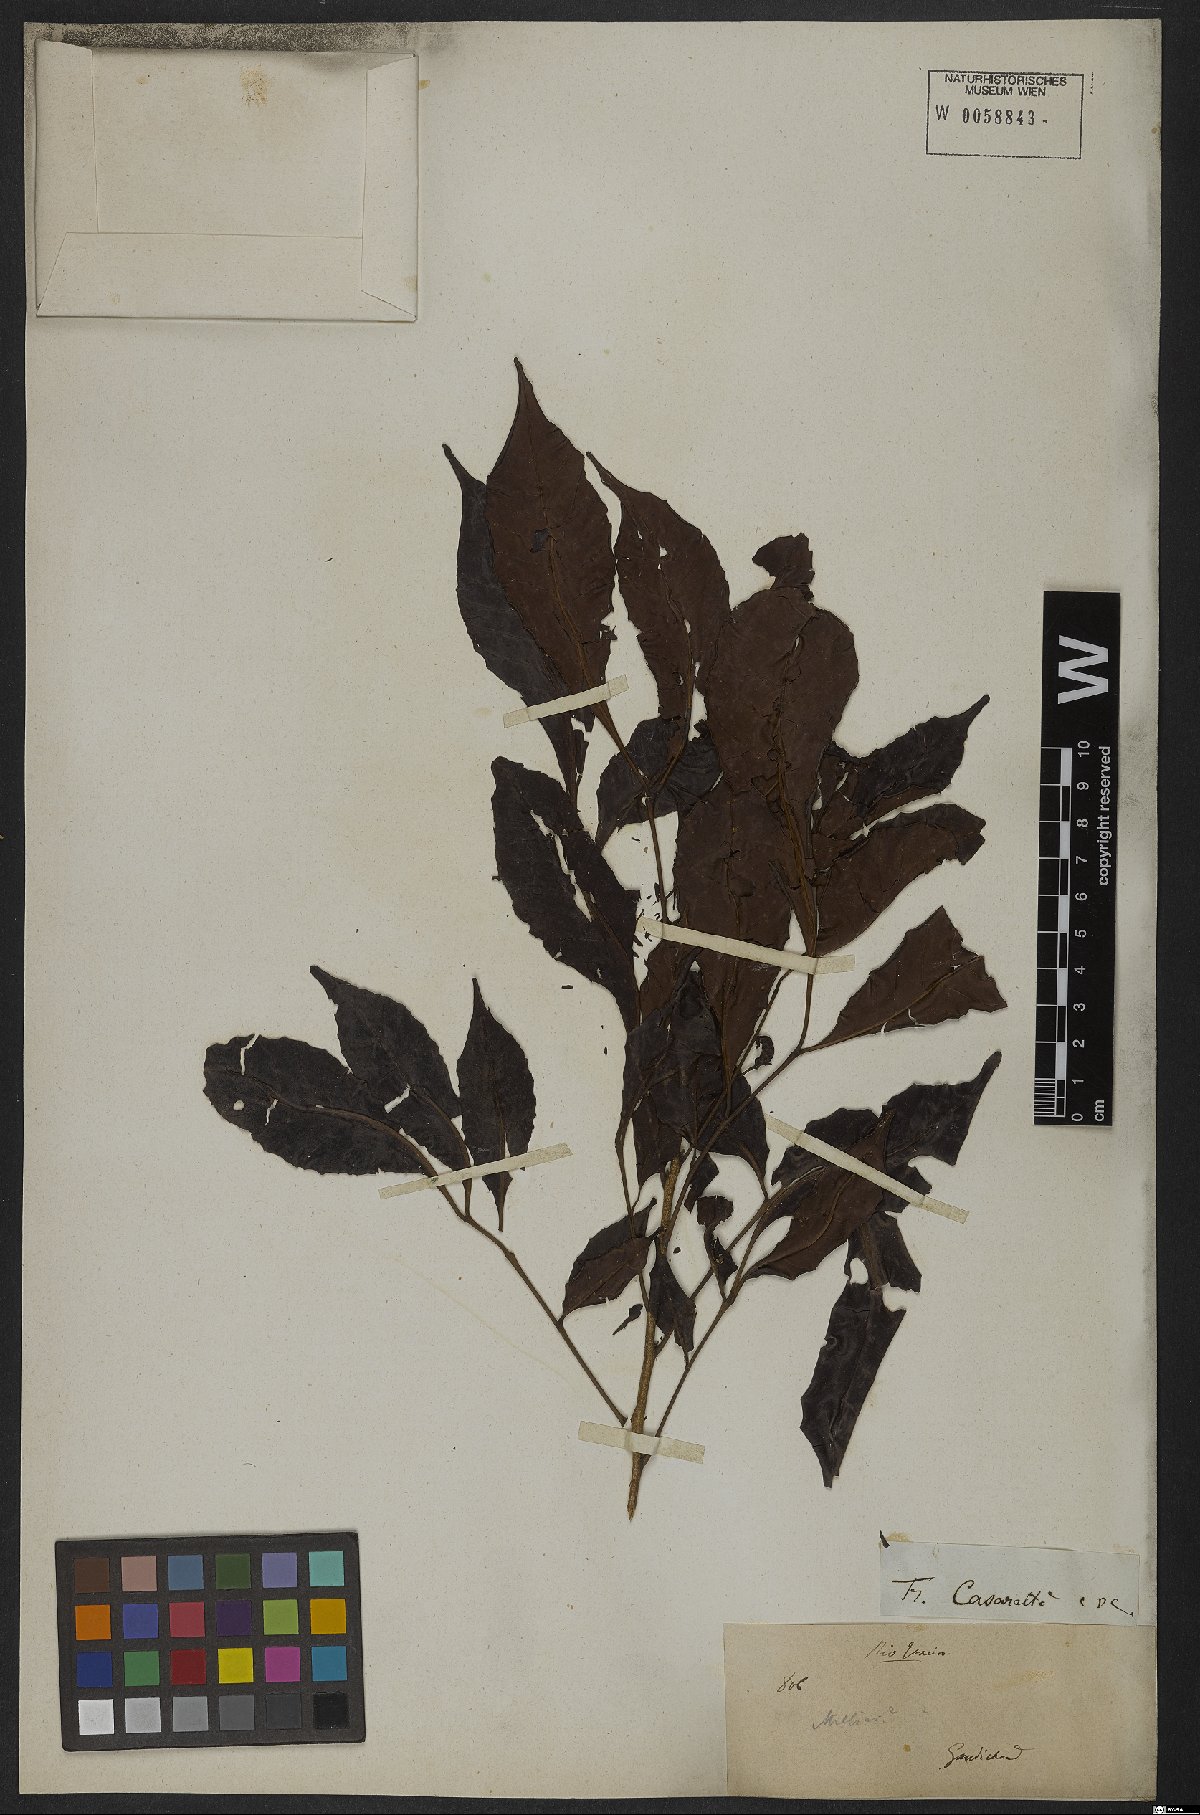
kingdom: Plantae
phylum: Tracheophyta
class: Magnoliopsida
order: Sapindales
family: Meliaceae
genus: Trichilia
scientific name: Trichilia casarettoi
